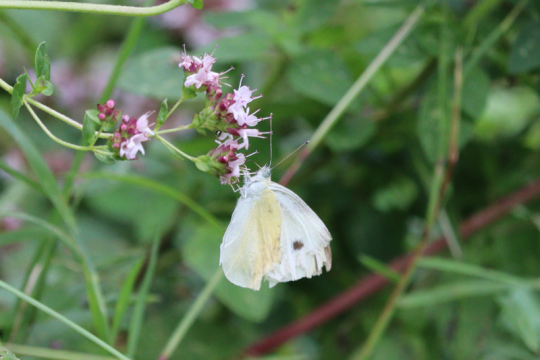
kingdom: Animalia
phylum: Arthropoda
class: Insecta
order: Lepidoptera
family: Pieridae
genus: Pieris
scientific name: Pieris rapae
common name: Cabbage White
